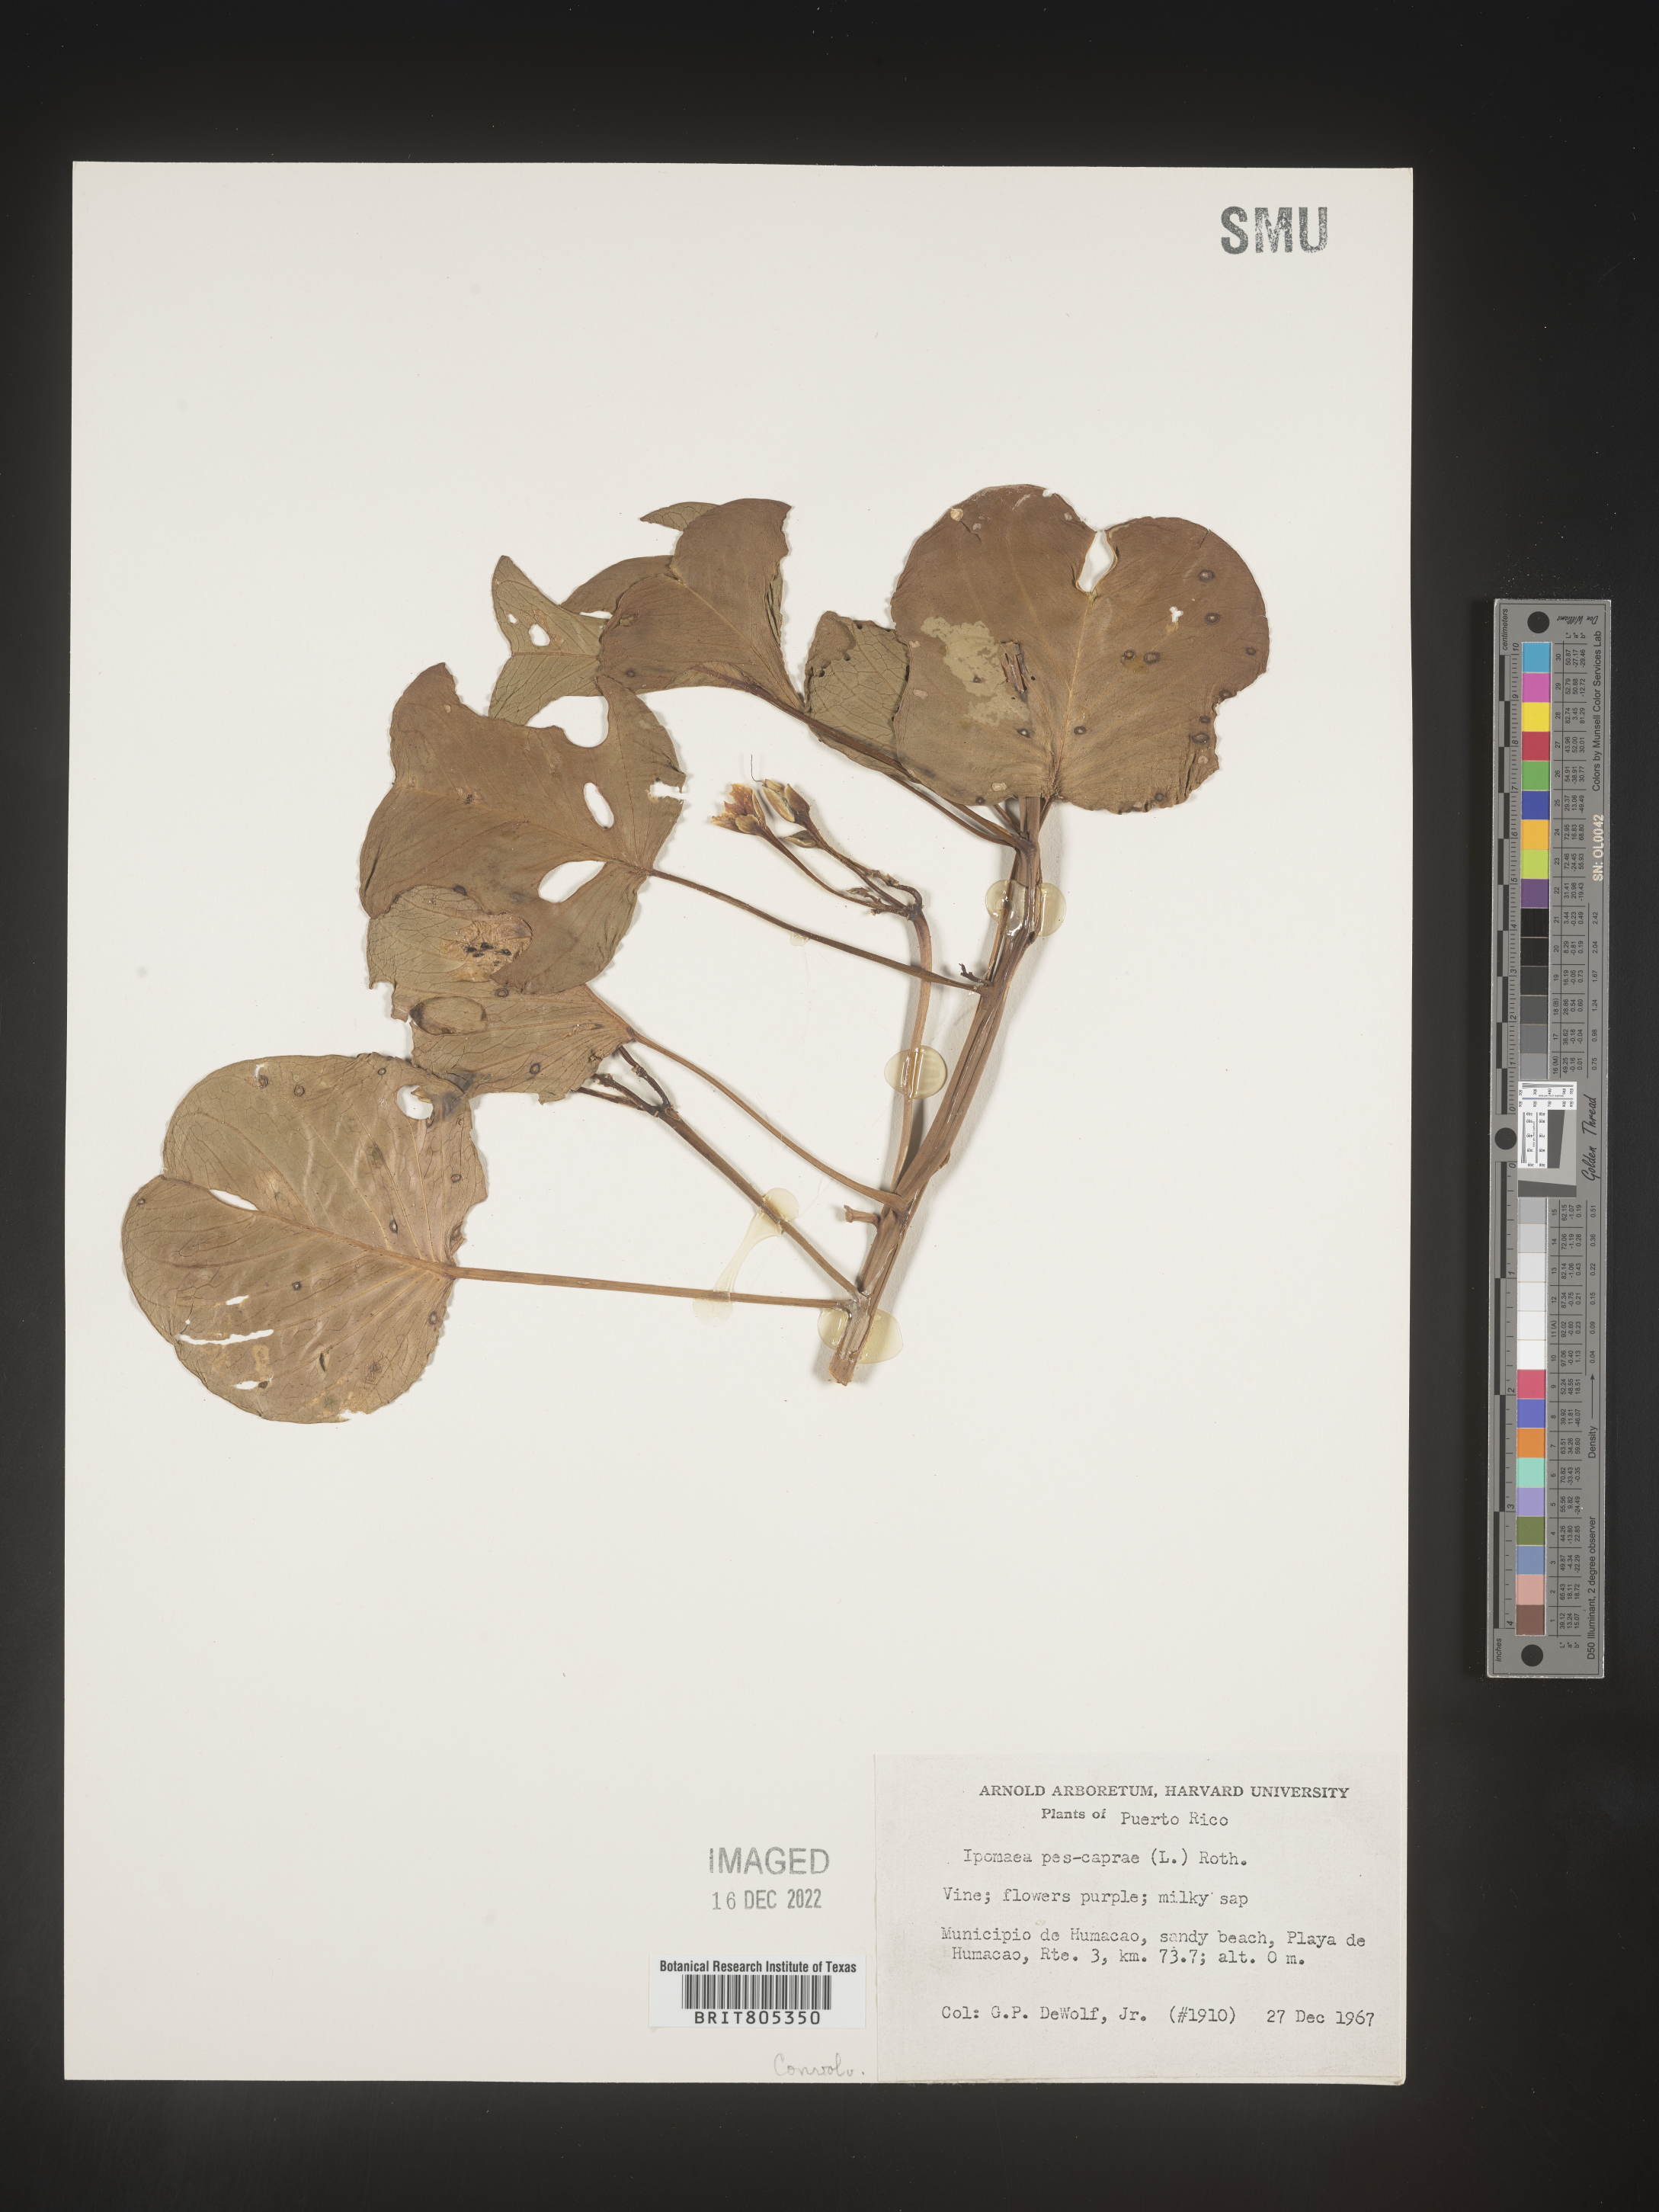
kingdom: Plantae
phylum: Tracheophyta
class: Magnoliopsida
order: Solanales
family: Convolvulaceae
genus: Ipomoea
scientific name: Ipomoea
